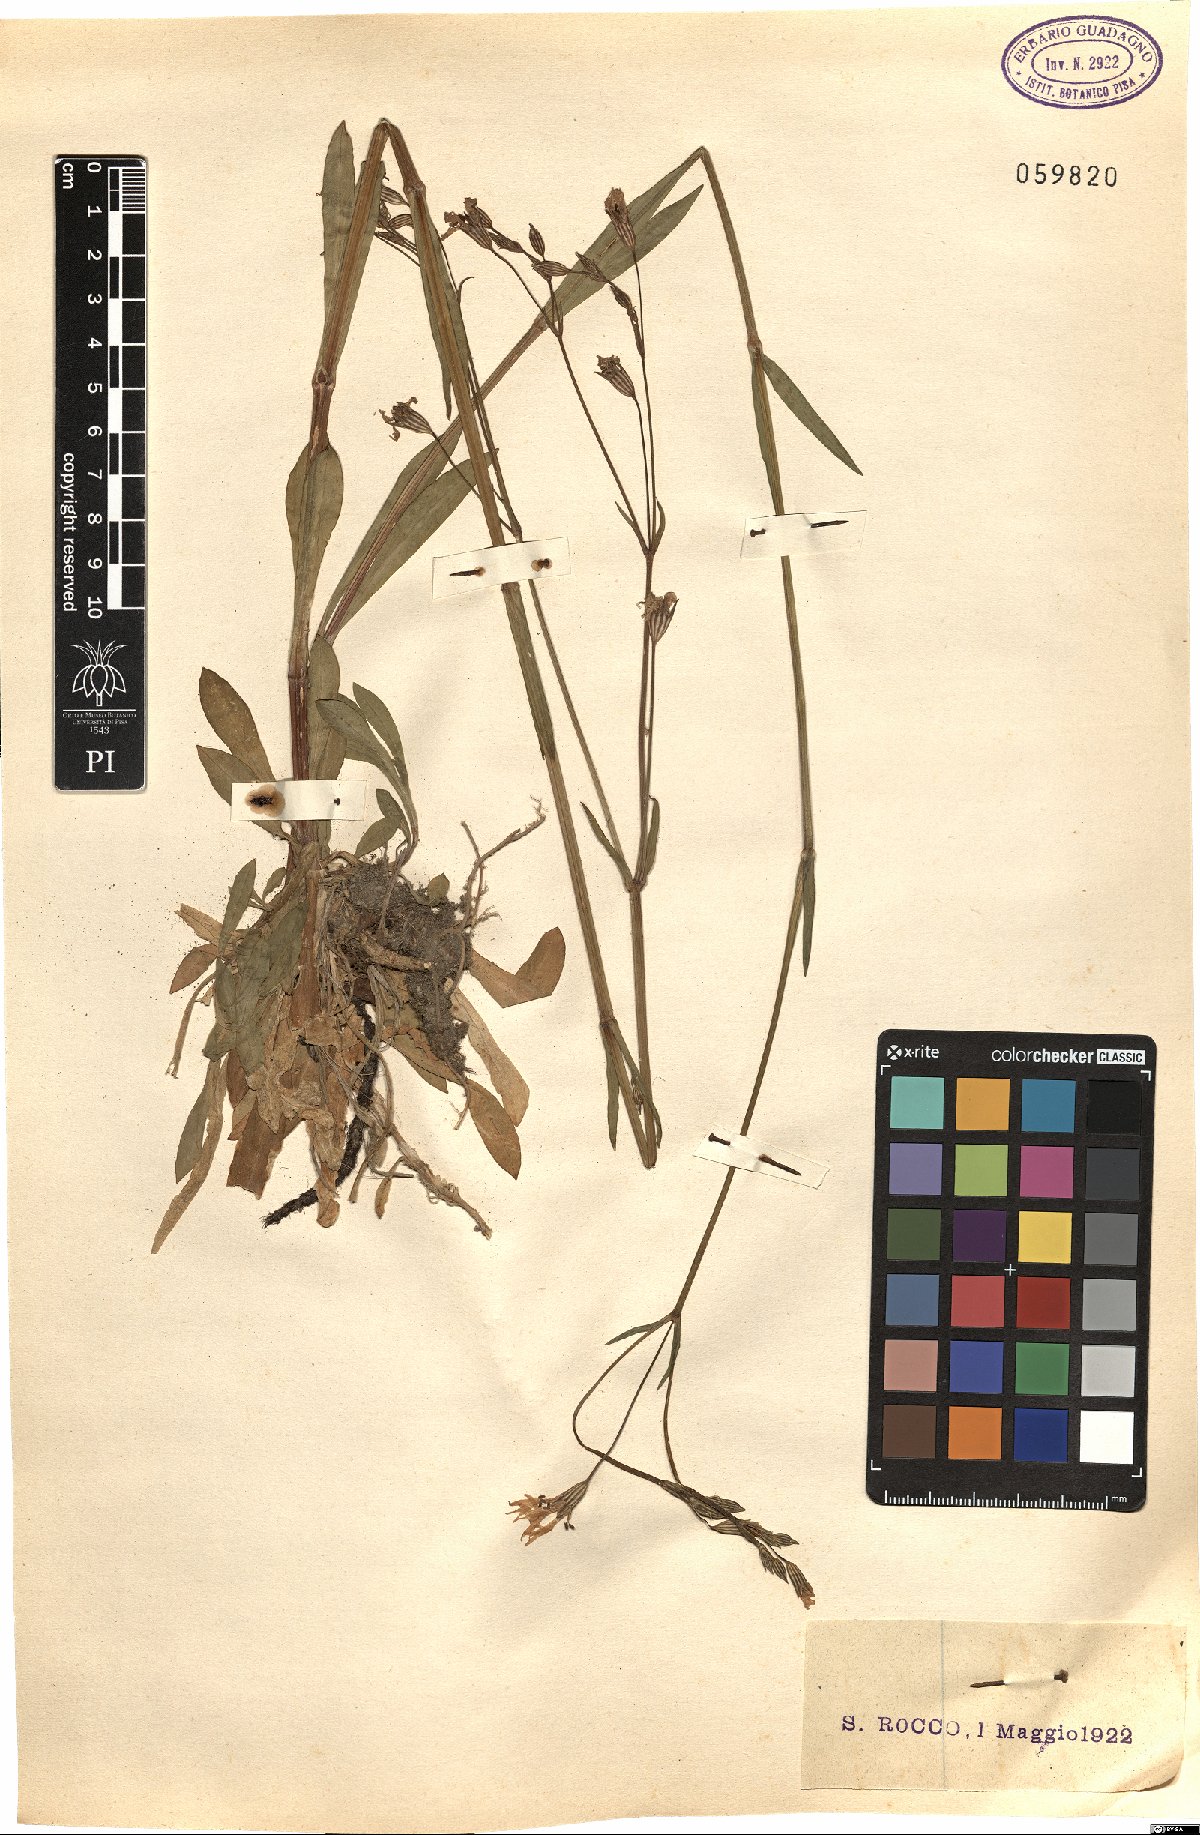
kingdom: Plantae
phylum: Tracheophyta
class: Magnoliopsida
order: Caryophyllales
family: Caryophyllaceae
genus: Silene
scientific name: Silene flos-cuculi
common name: Ragged-robin
